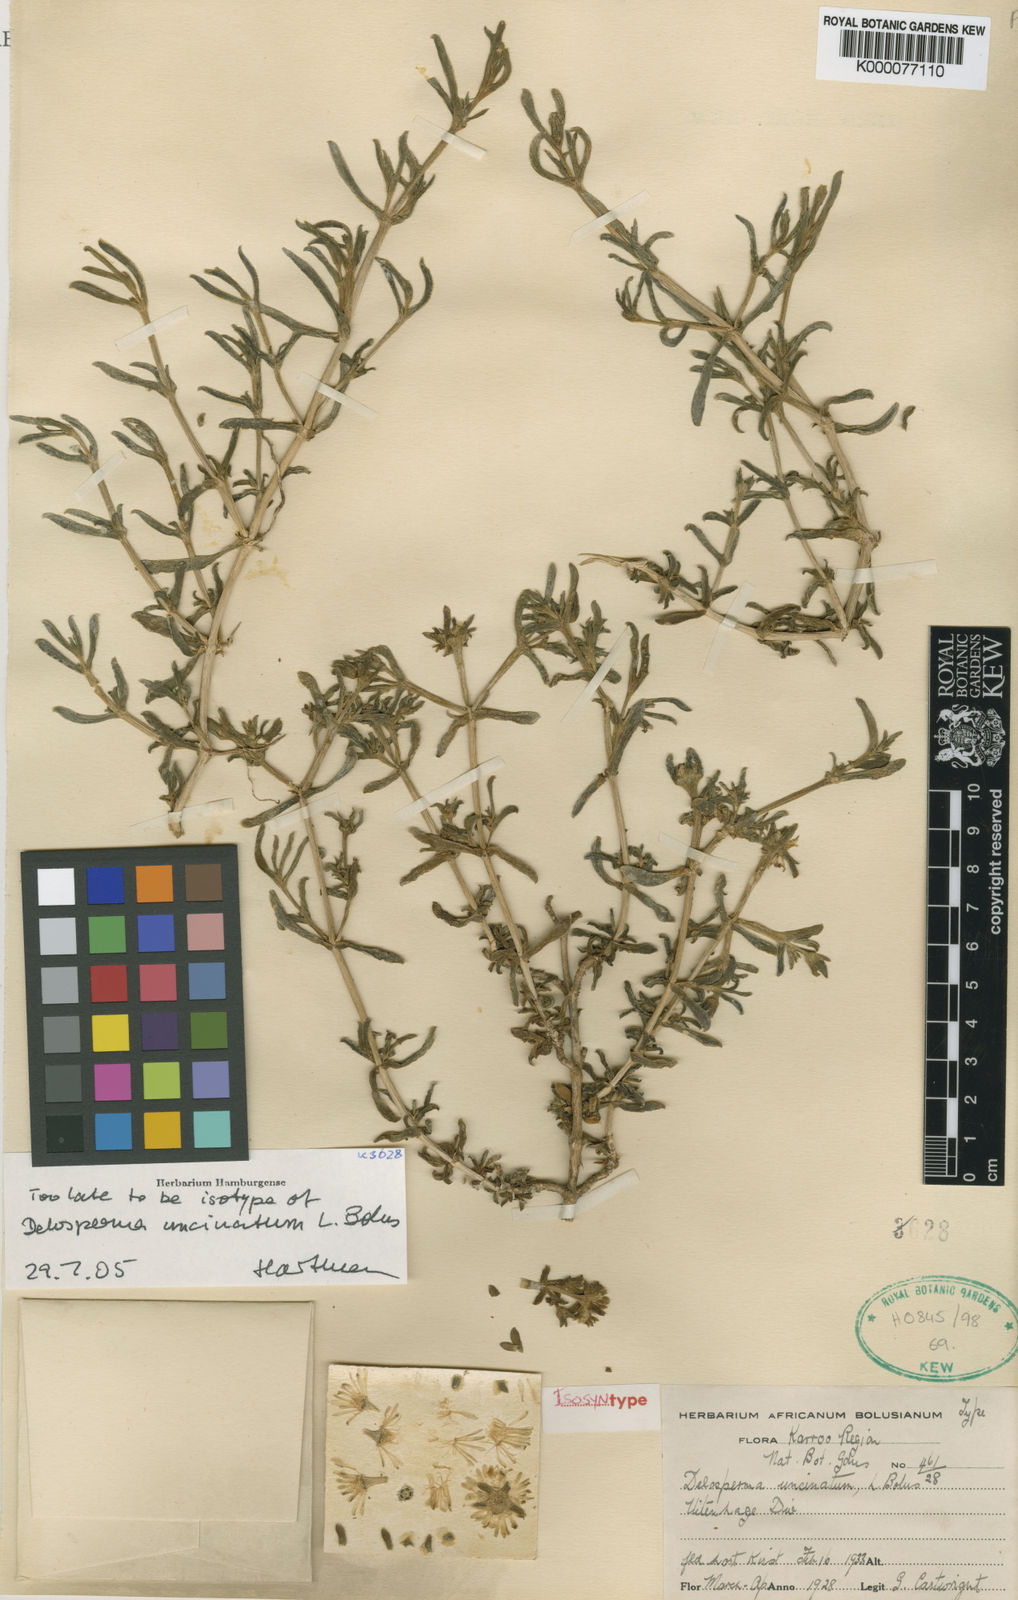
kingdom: Plantae
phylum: Tracheophyta
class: Magnoliopsida
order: Caryophyllales
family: Aizoaceae
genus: Delosperma
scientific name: Delosperma uncinatum
